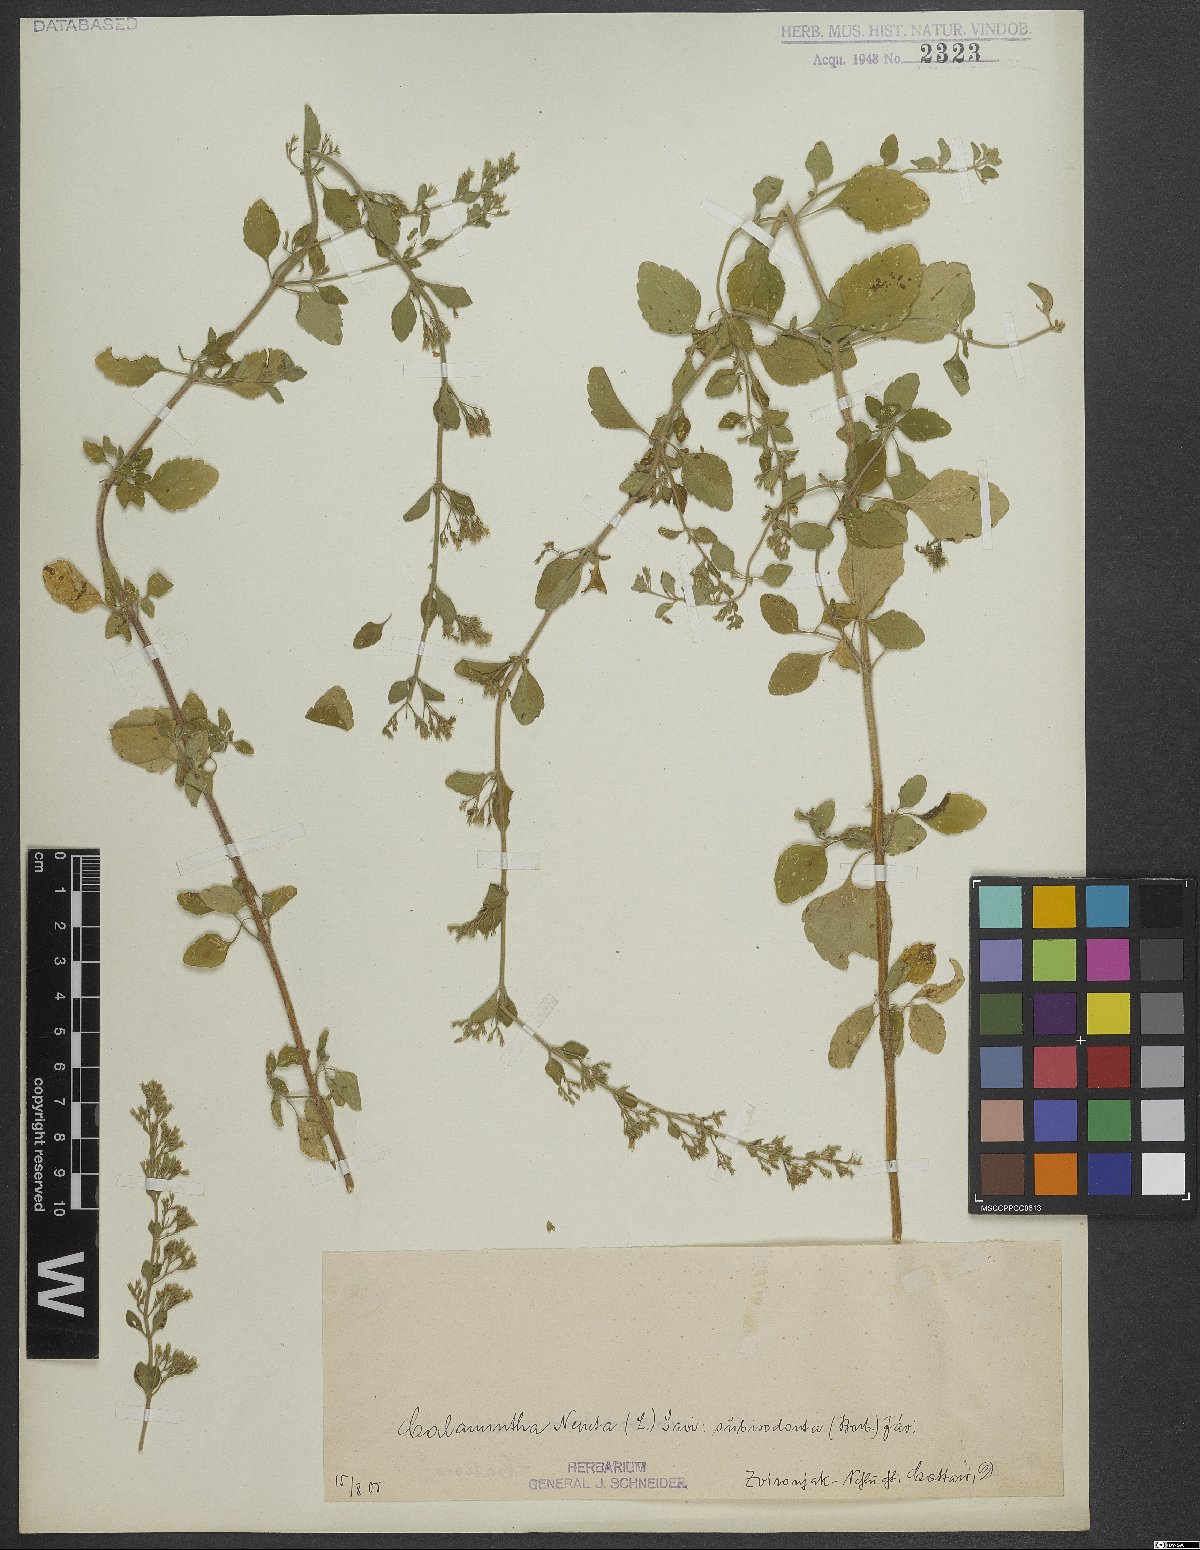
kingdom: Plantae
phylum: Tracheophyta
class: Magnoliopsida
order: Lamiales
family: Lamiaceae
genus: Clinopodium
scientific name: Clinopodium nepeta
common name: Lesser calamint
